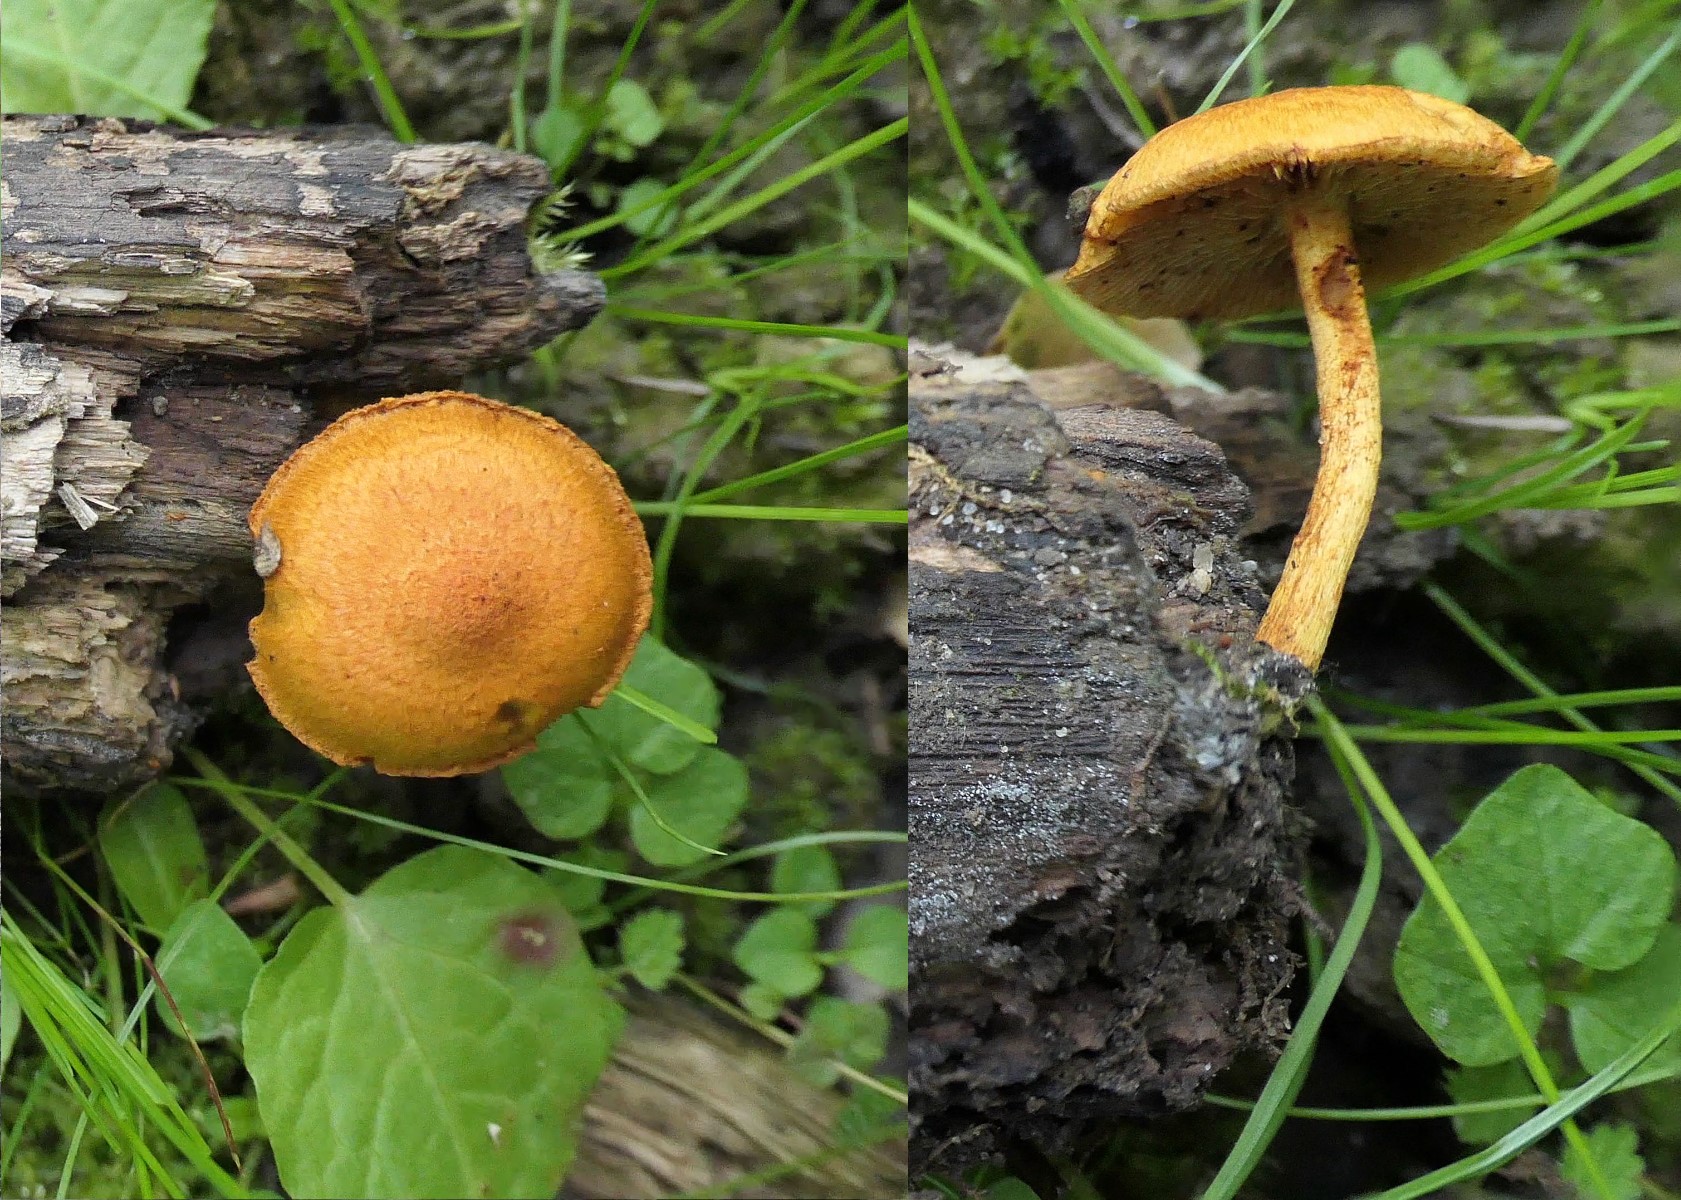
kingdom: Fungi
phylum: Basidiomycota
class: Agaricomycetes
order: Agaricales
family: Strophariaceae
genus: Pholiota
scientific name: Pholiota tuberculosa
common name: finskællet skælhat
